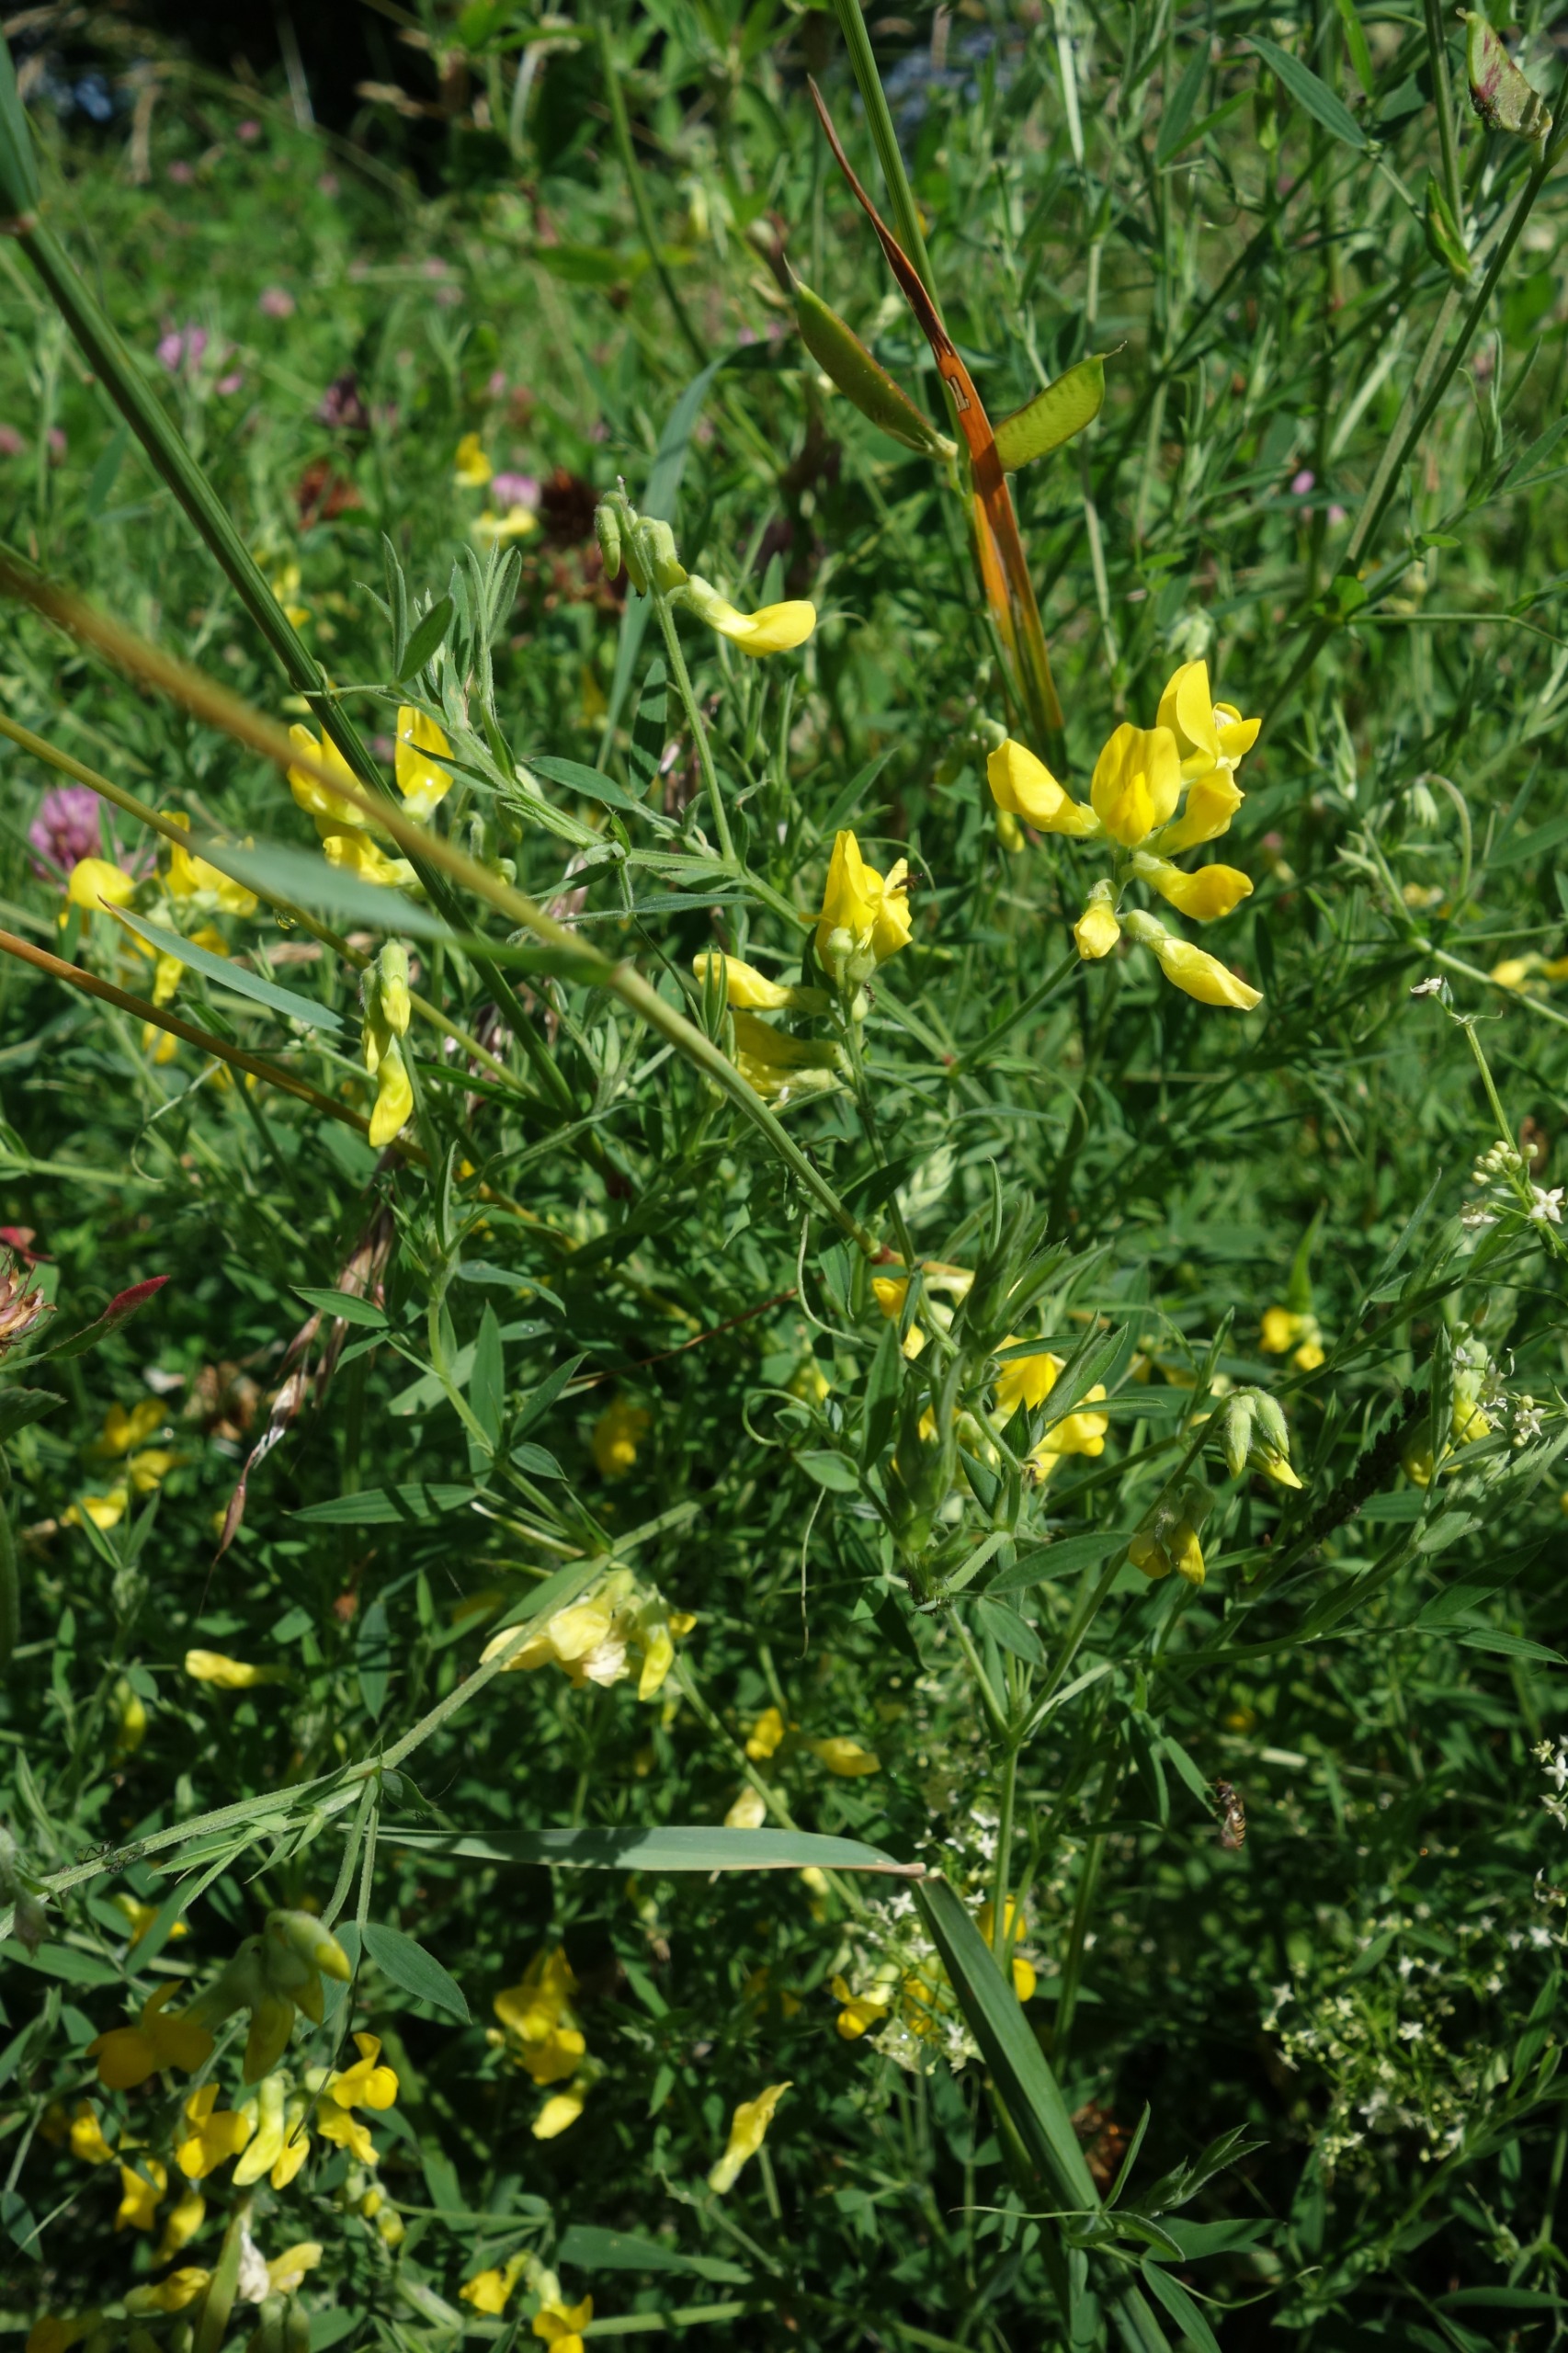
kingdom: Plantae
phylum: Tracheophyta
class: Magnoliopsida
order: Fabales
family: Fabaceae
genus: Lathyrus
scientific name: Lathyrus pratensis
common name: Gul fladbælg
